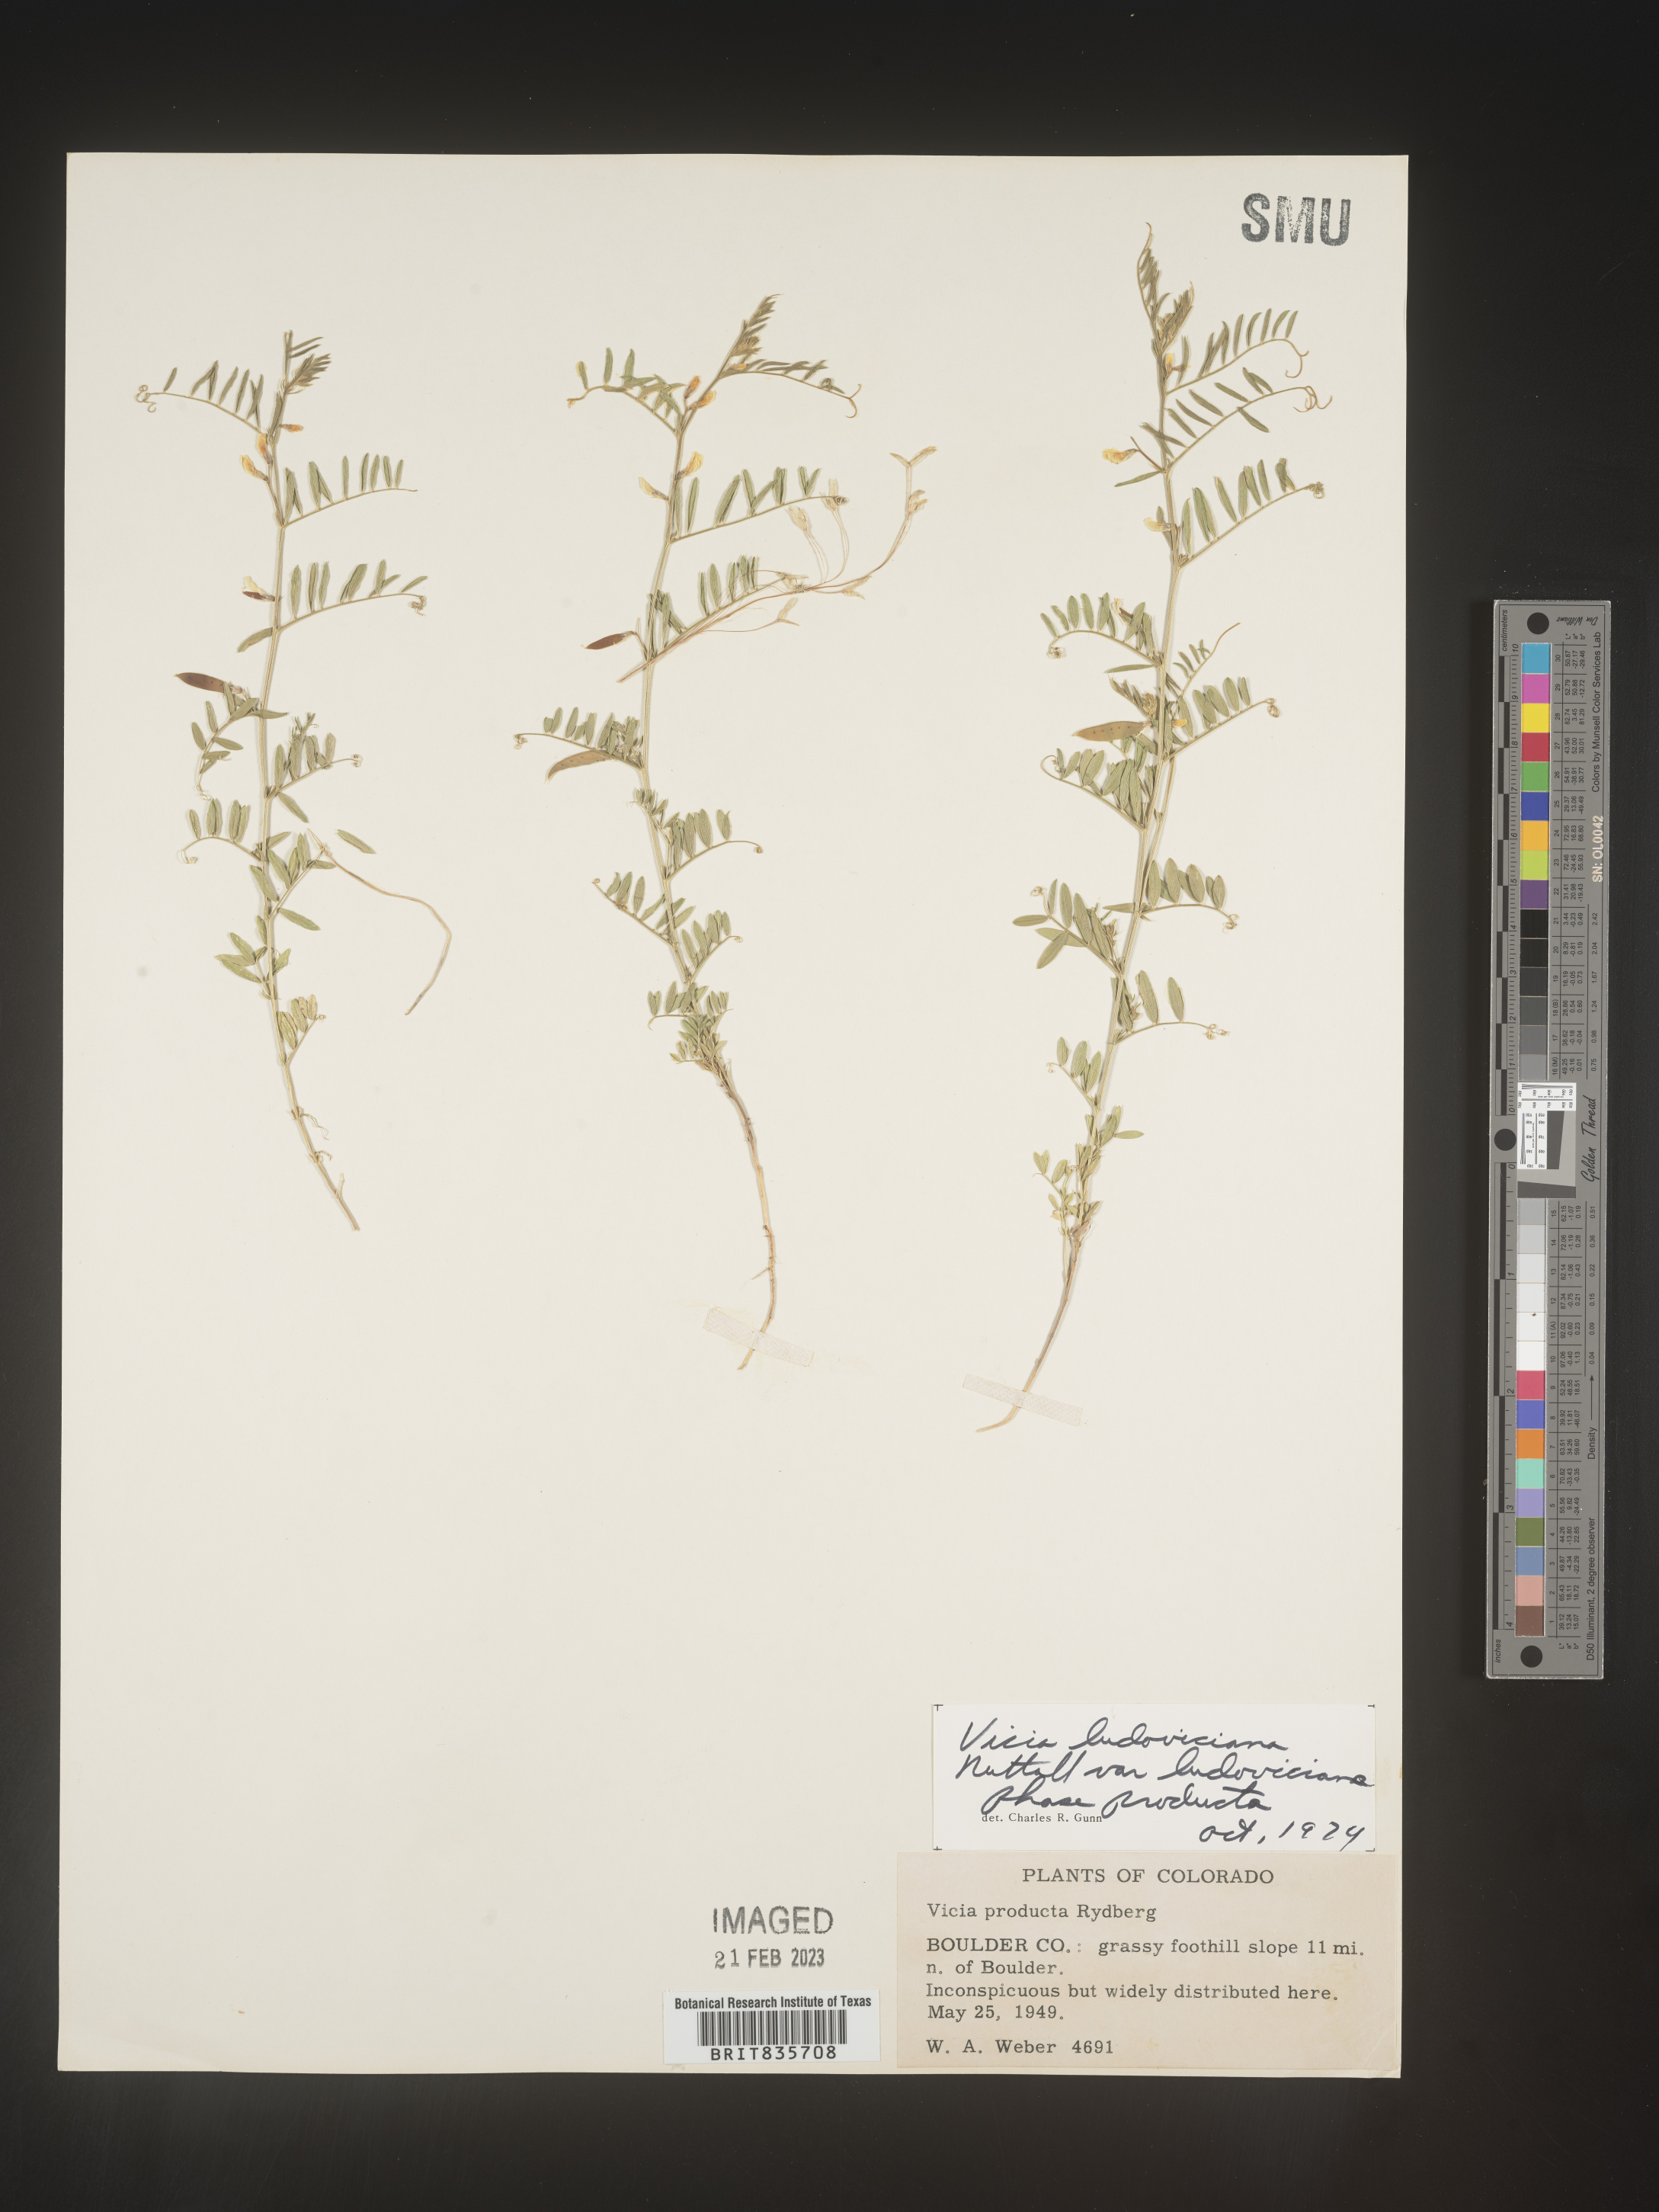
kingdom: Plantae
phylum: Tracheophyta
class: Magnoliopsida
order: Fabales
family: Fabaceae
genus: Vicia
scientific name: Vicia ludoviciana
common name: Louisiana vetch
